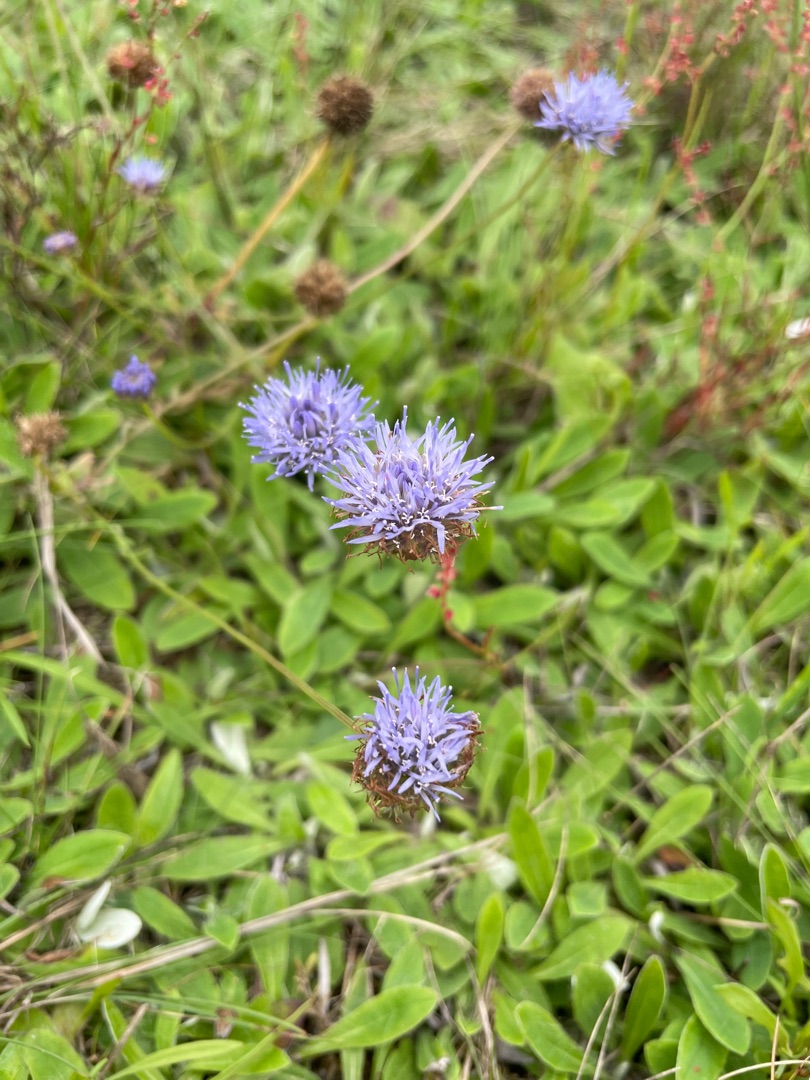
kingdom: Plantae
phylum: Tracheophyta
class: Magnoliopsida
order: Asterales
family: Campanulaceae
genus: Jasione
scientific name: Jasione montana
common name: Blåmunke
